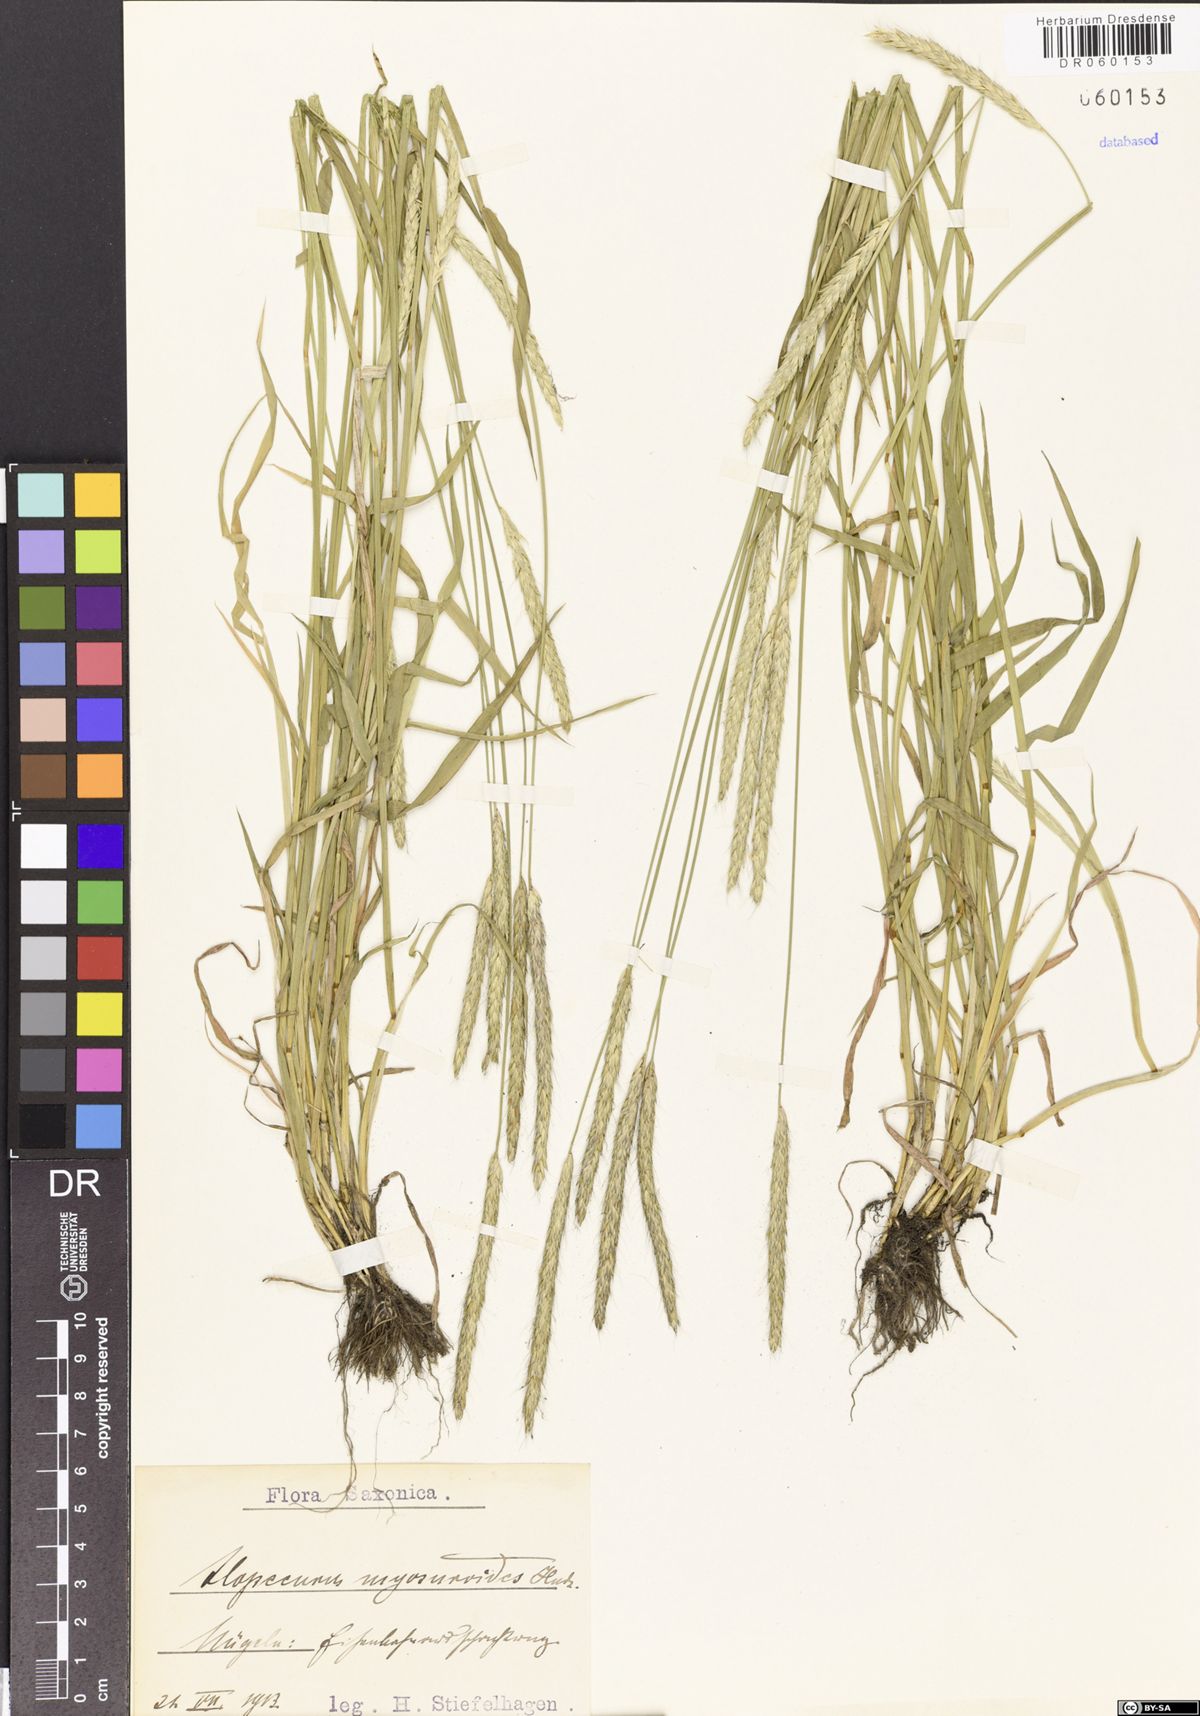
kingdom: Plantae
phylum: Tracheophyta
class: Liliopsida
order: Poales
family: Poaceae
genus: Alopecurus
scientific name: Alopecurus myosuroides
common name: Black-grass
